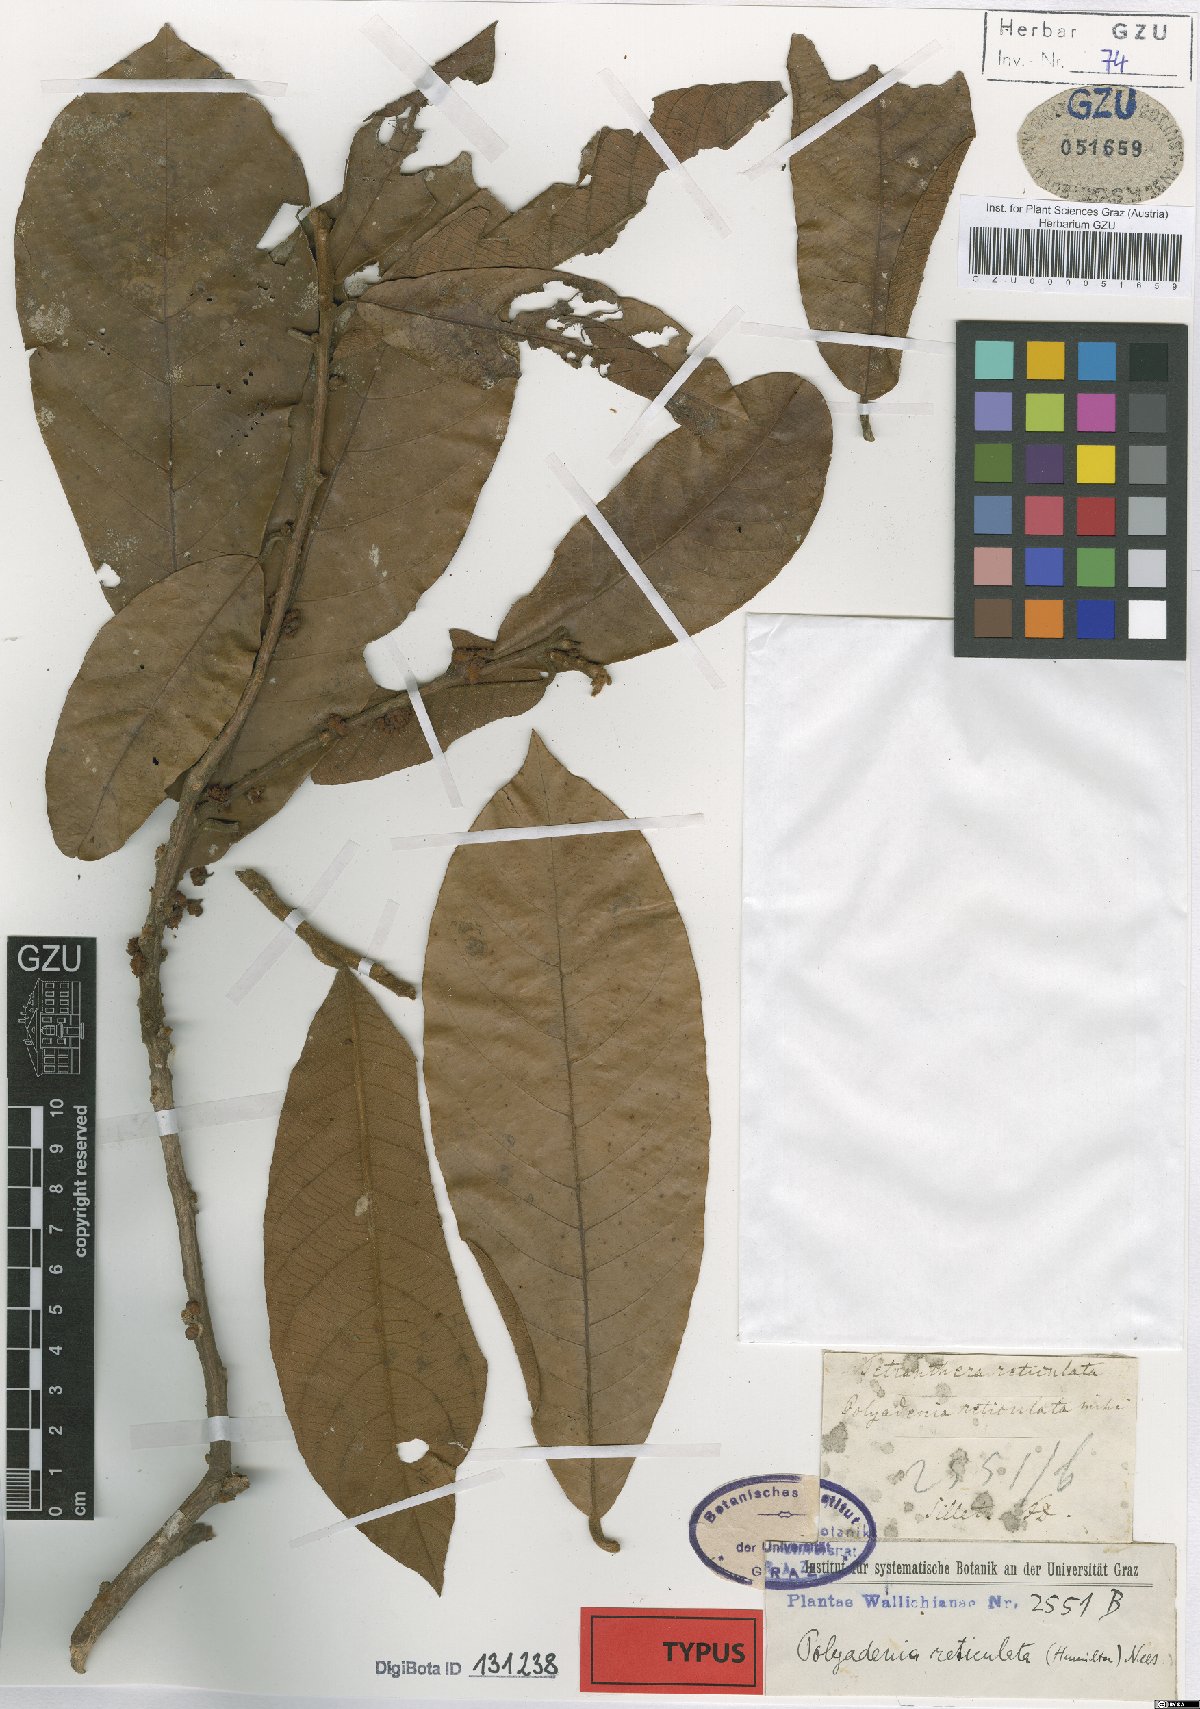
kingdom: Plantae
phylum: Tracheophyta
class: Magnoliopsida
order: Laurales
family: Lauraceae
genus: Lindera
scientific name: Lindera reticulata
